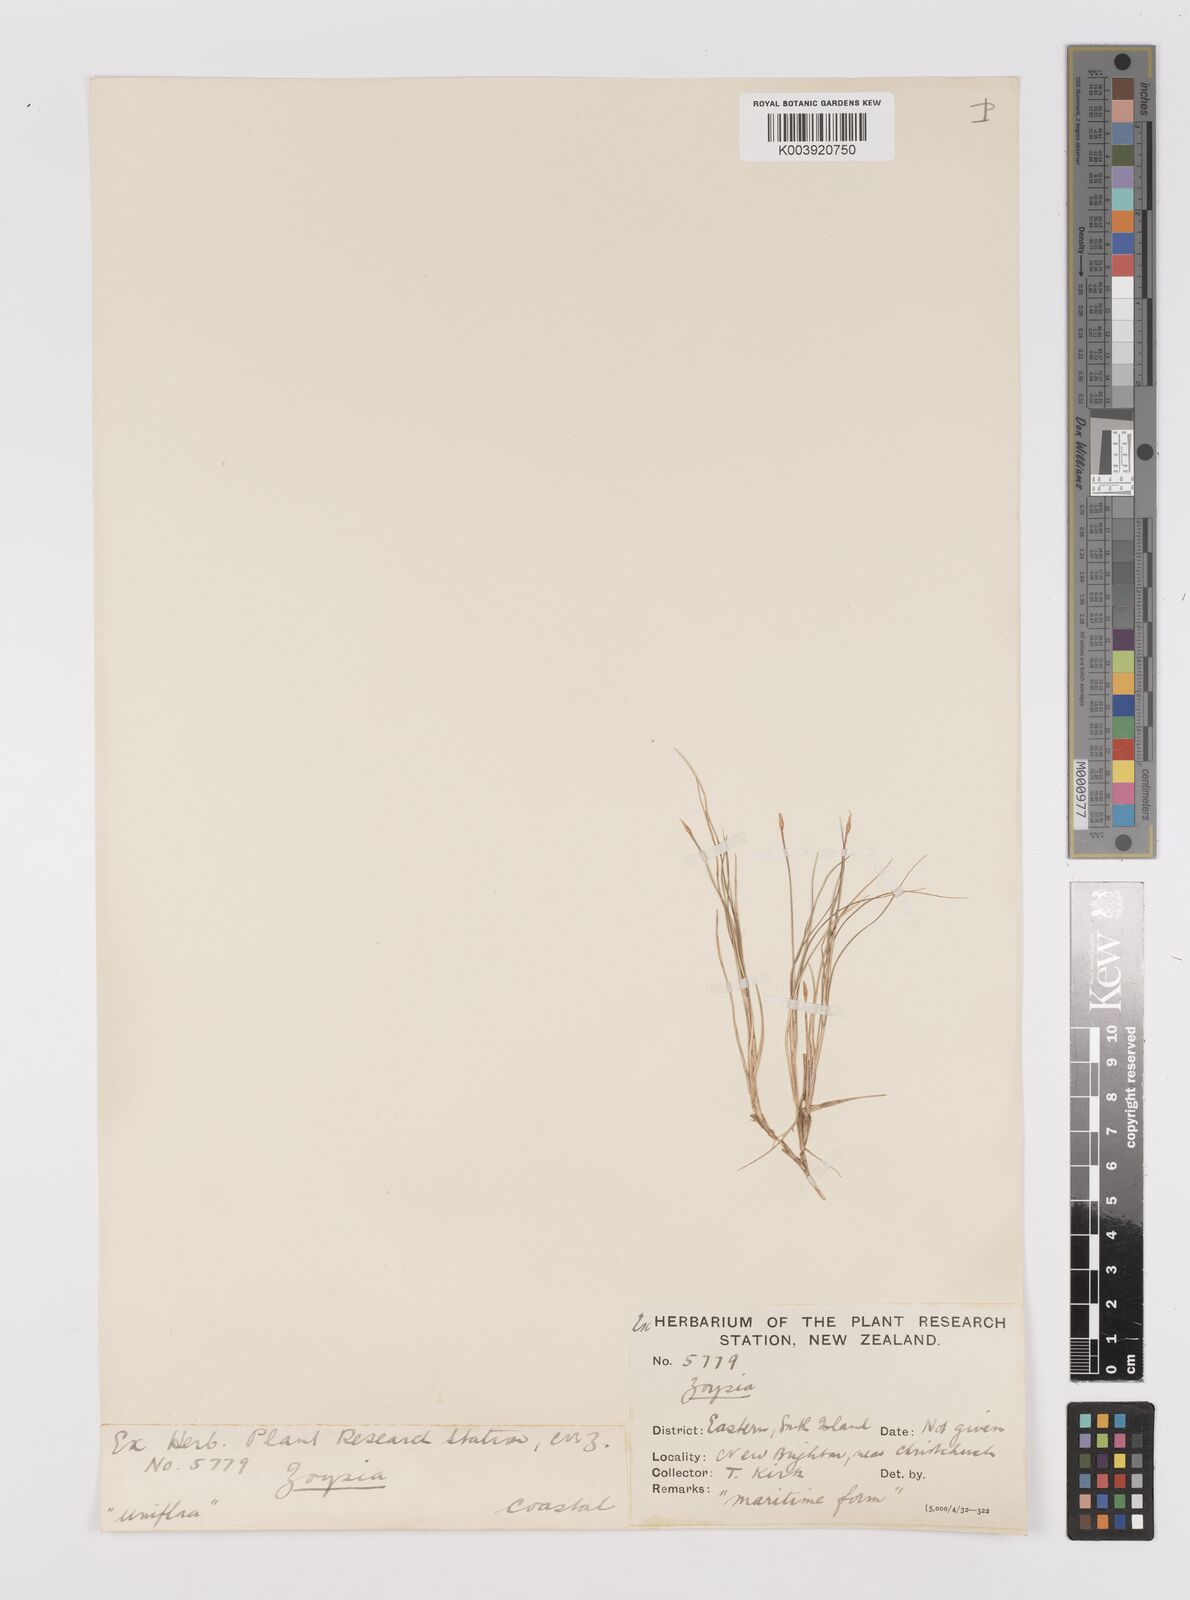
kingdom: Plantae
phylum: Tracheophyta
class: Liliopsida
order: Poales
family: Poaceae
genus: Zoysia
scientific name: Zoysia minima
